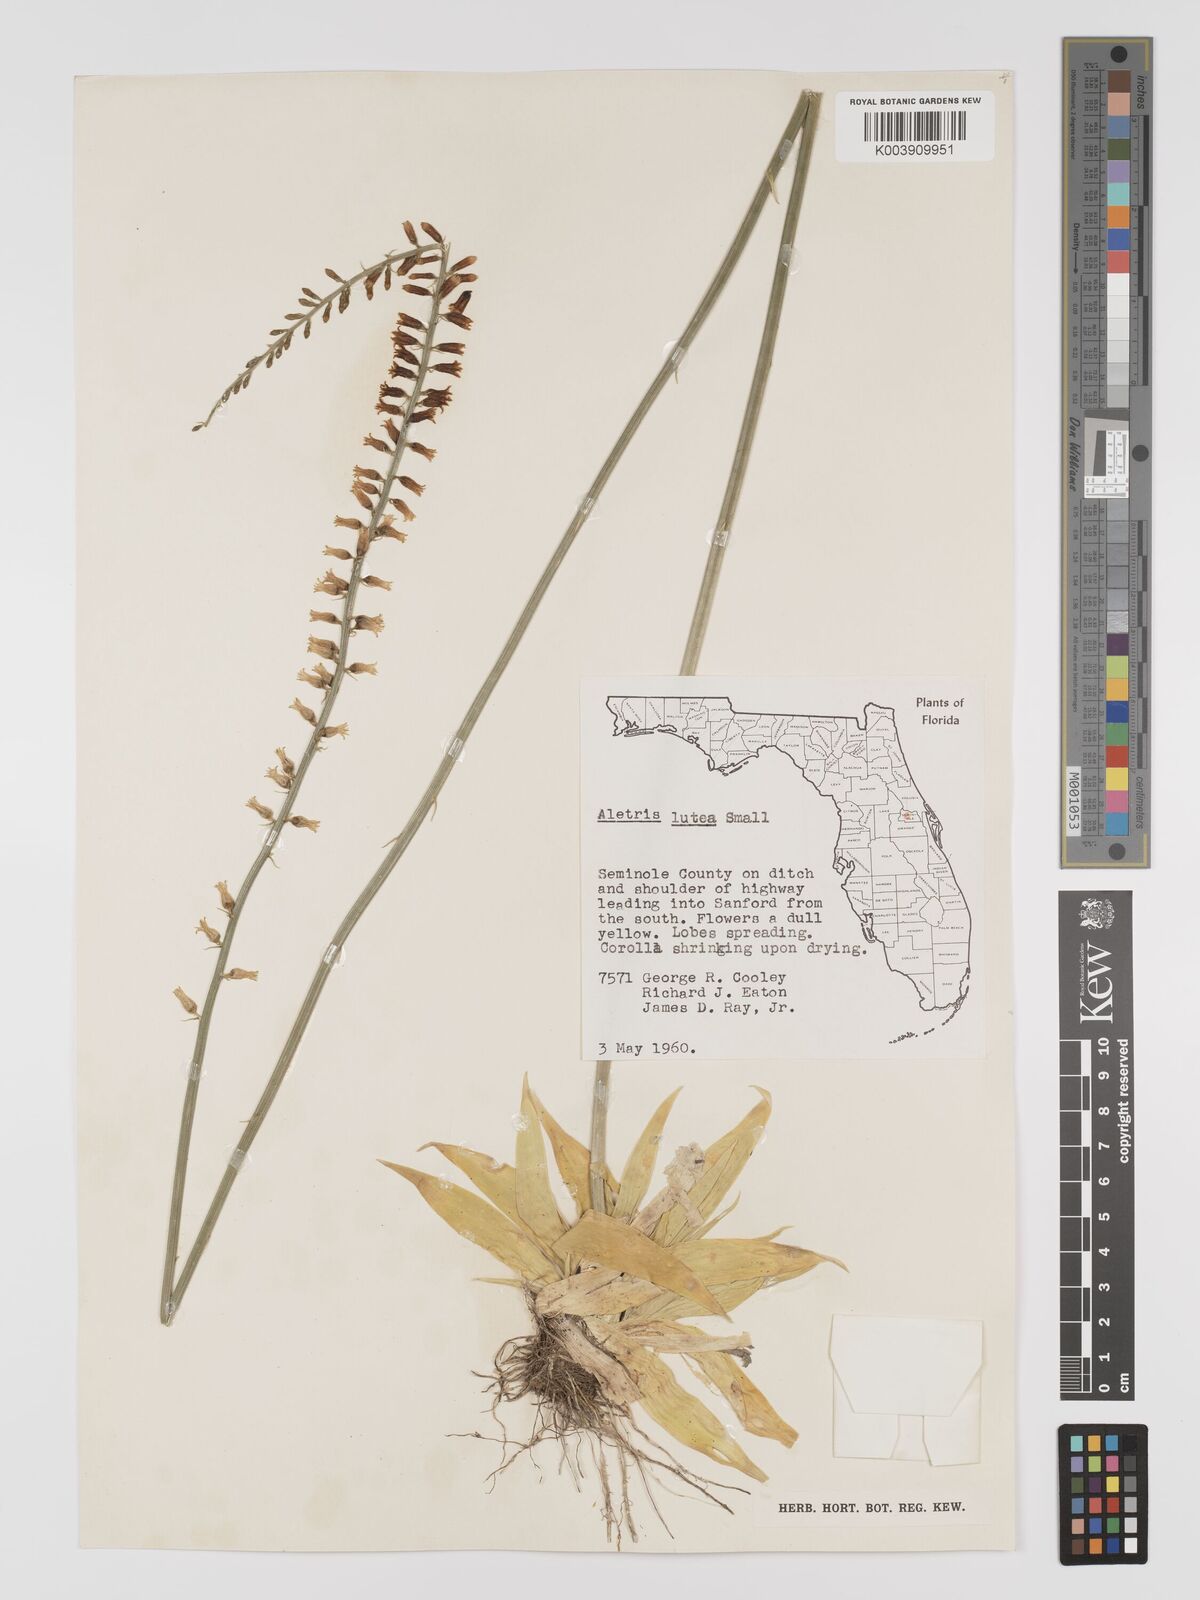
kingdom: Plantae
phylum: Tracheophyta
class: Liliopsida
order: Dioscoreales
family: Nartheciaceae
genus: Aletris
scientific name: Aletris lutea
